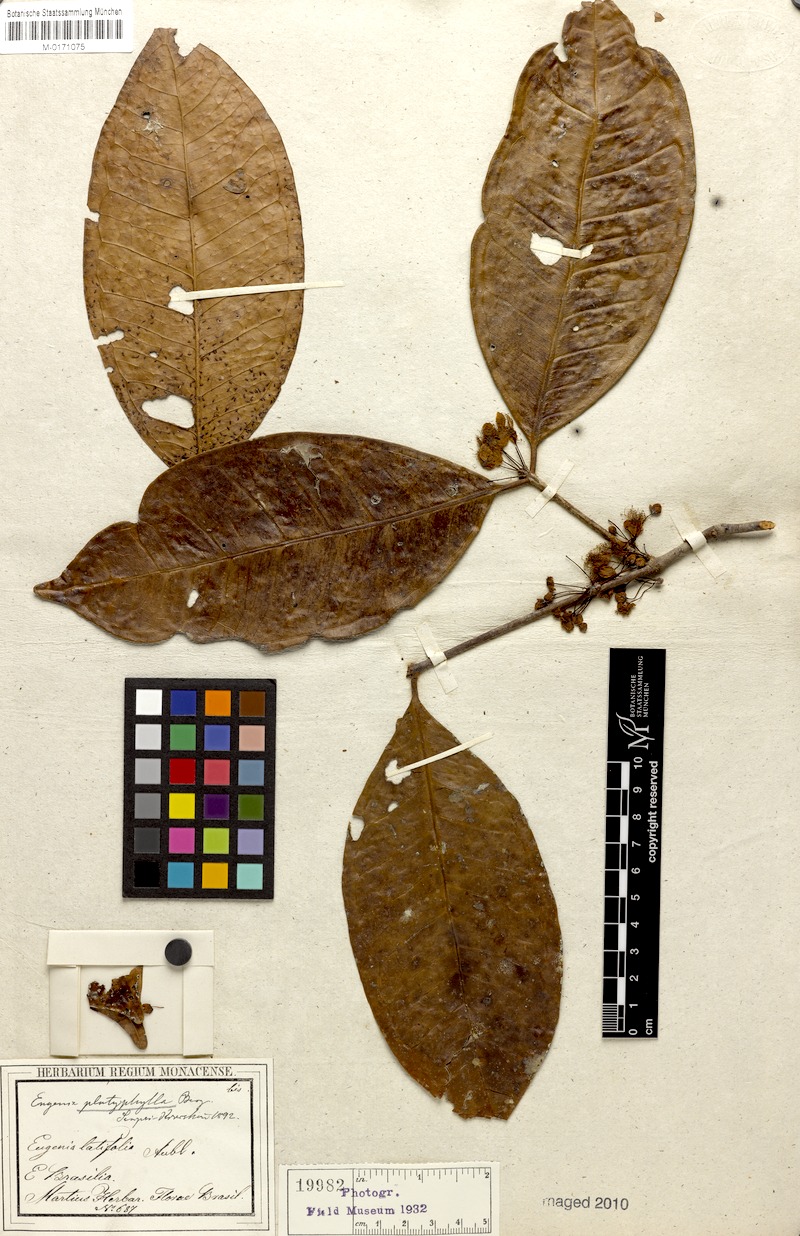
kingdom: Plantae
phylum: Tracheophyta
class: Magnoliopsida
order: Myrtales
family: Myrtaceae
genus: Eugenia
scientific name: Eugenia platyphylla
